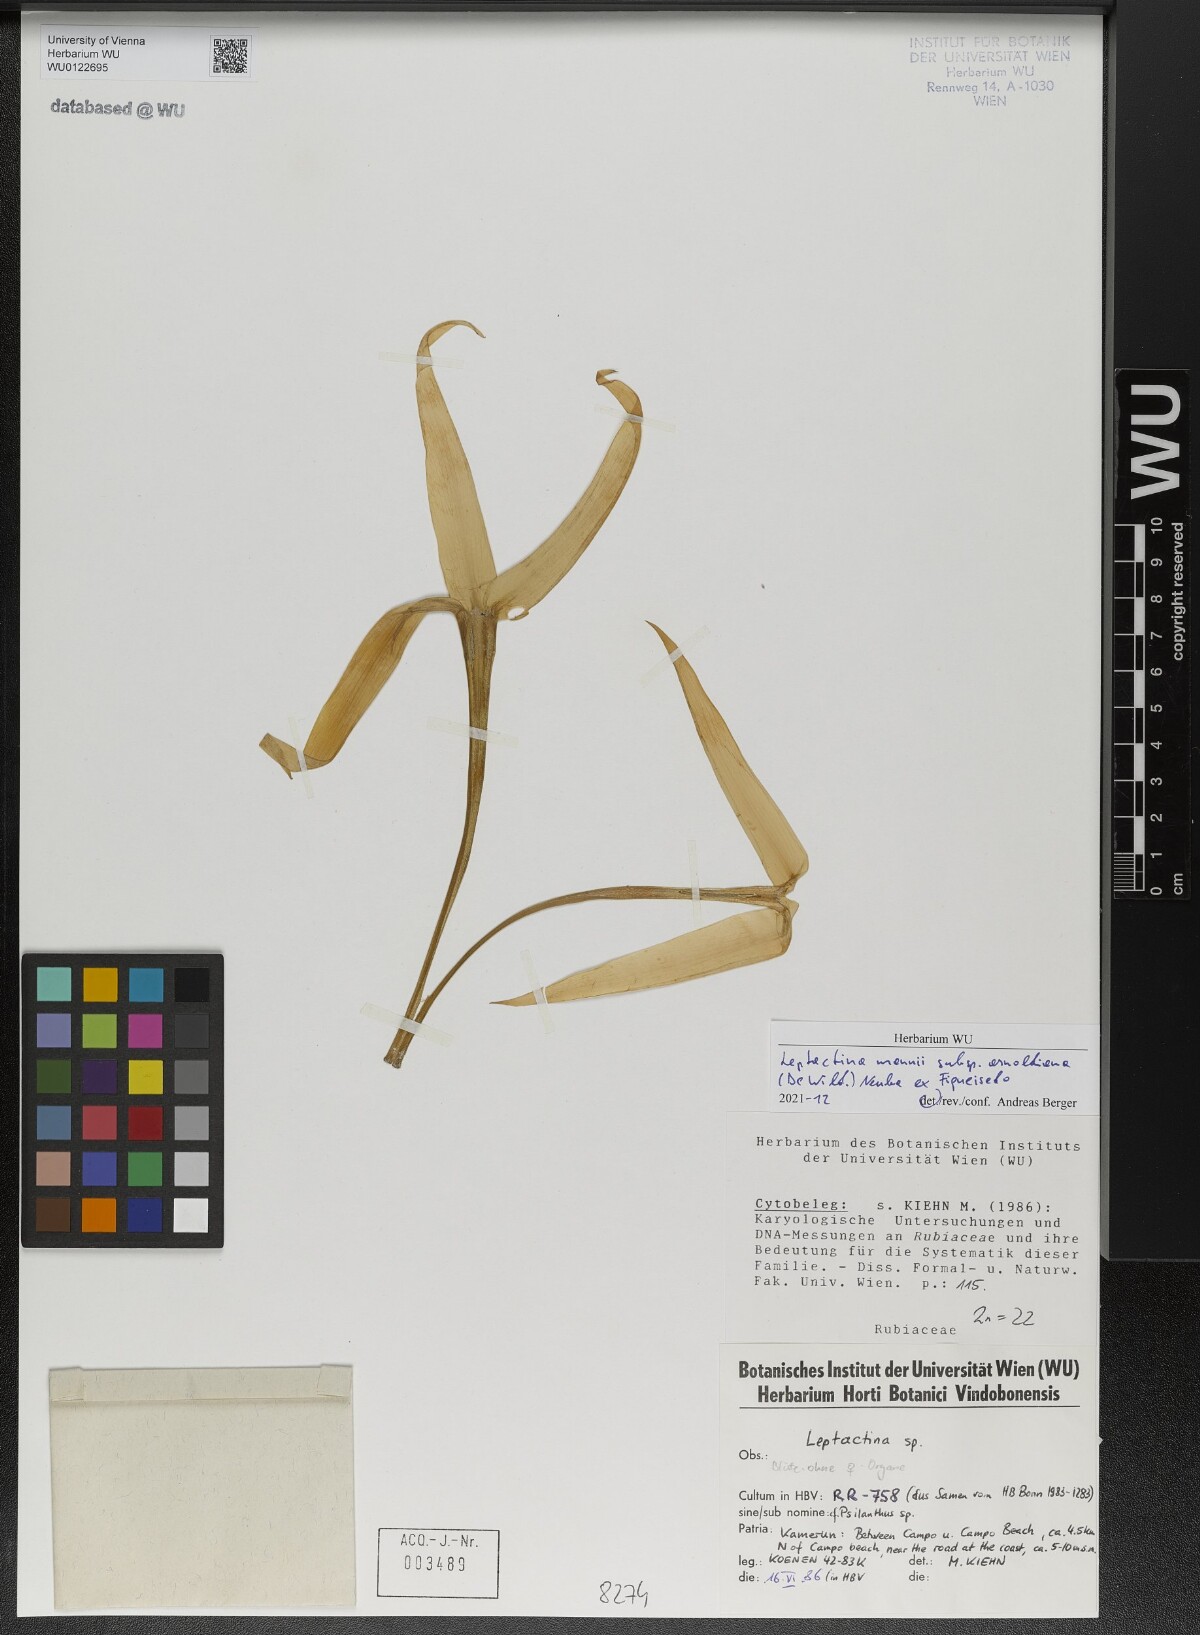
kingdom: Plantae
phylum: Tracheophyta
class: Magnoliopsida
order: Gentianales
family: Rubiaceae
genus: Leptactina
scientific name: Leptactina mannii
